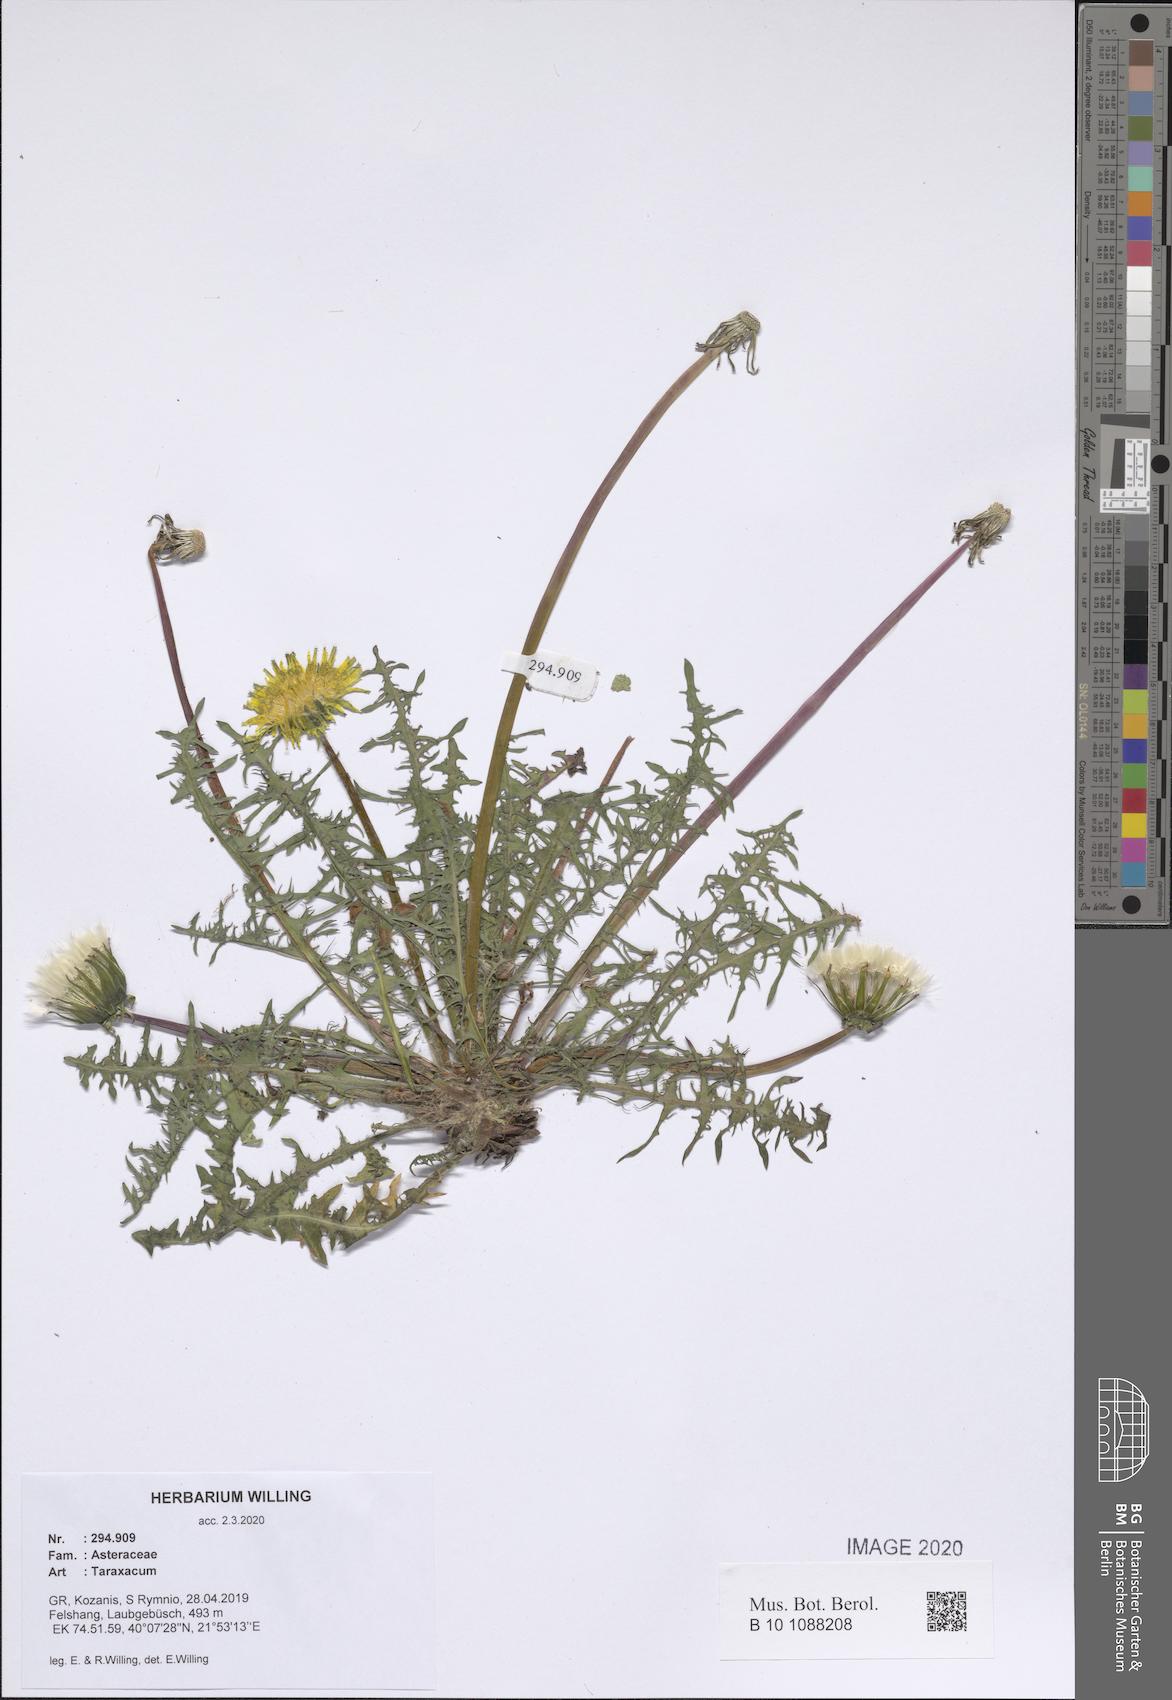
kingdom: Plantae
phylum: Tracheophyta
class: Magnoliopsida
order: Asterales
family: Asteraceae
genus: Taraxacum
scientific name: Taraxacum
